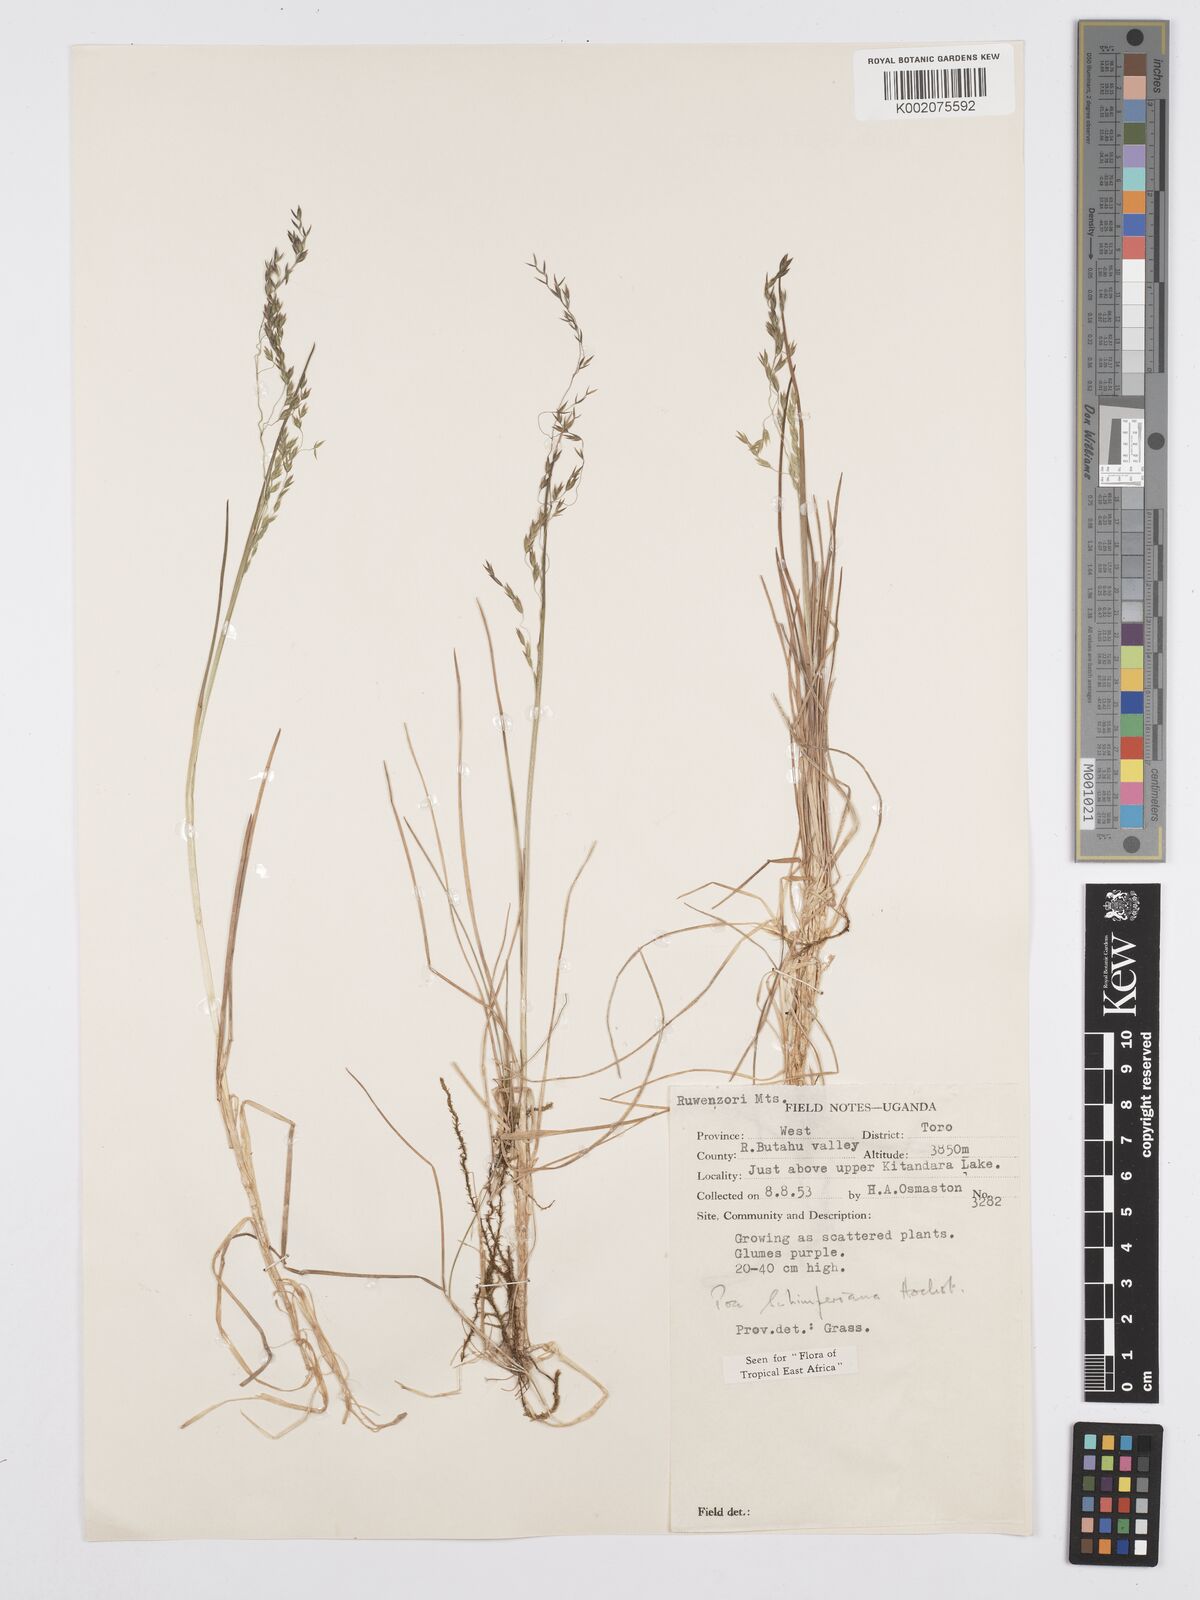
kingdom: Plantae
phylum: Tracheophyta
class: Liliopsida
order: Poales
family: Poaceae
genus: Poa
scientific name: Poa schimperiana
